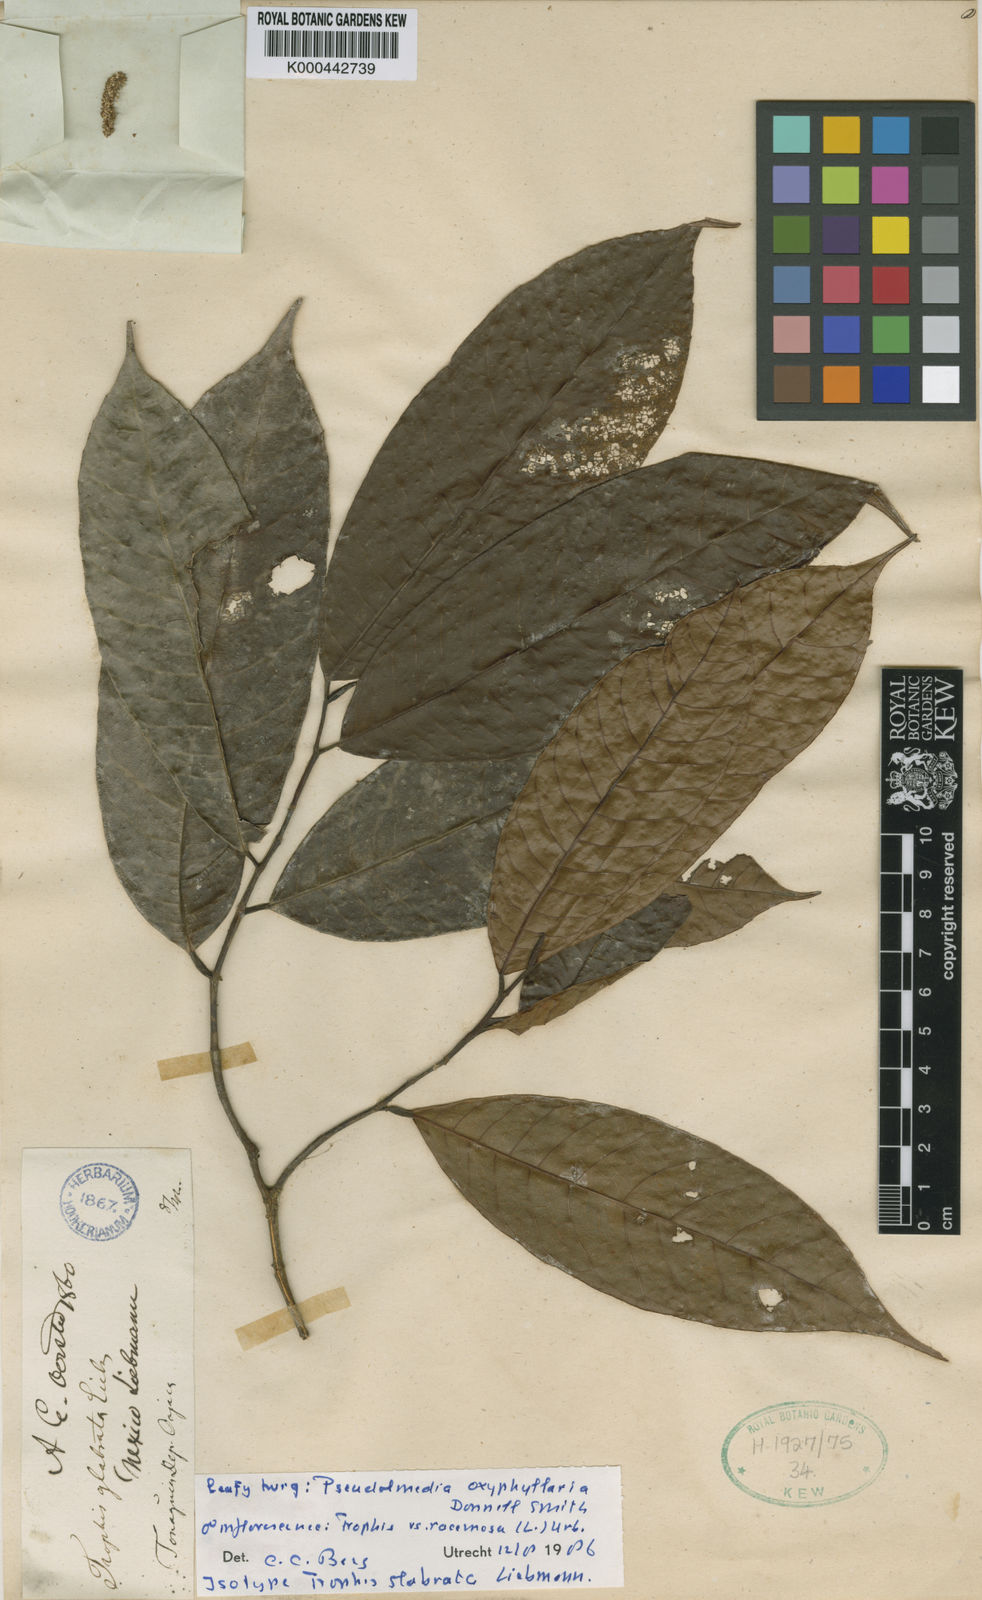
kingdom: Plantae
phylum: Tracheophyta
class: Magnoliopsida
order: Rosales
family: Moraceae
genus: Pseudolmedia
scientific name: Pseudolmedia glabrata
